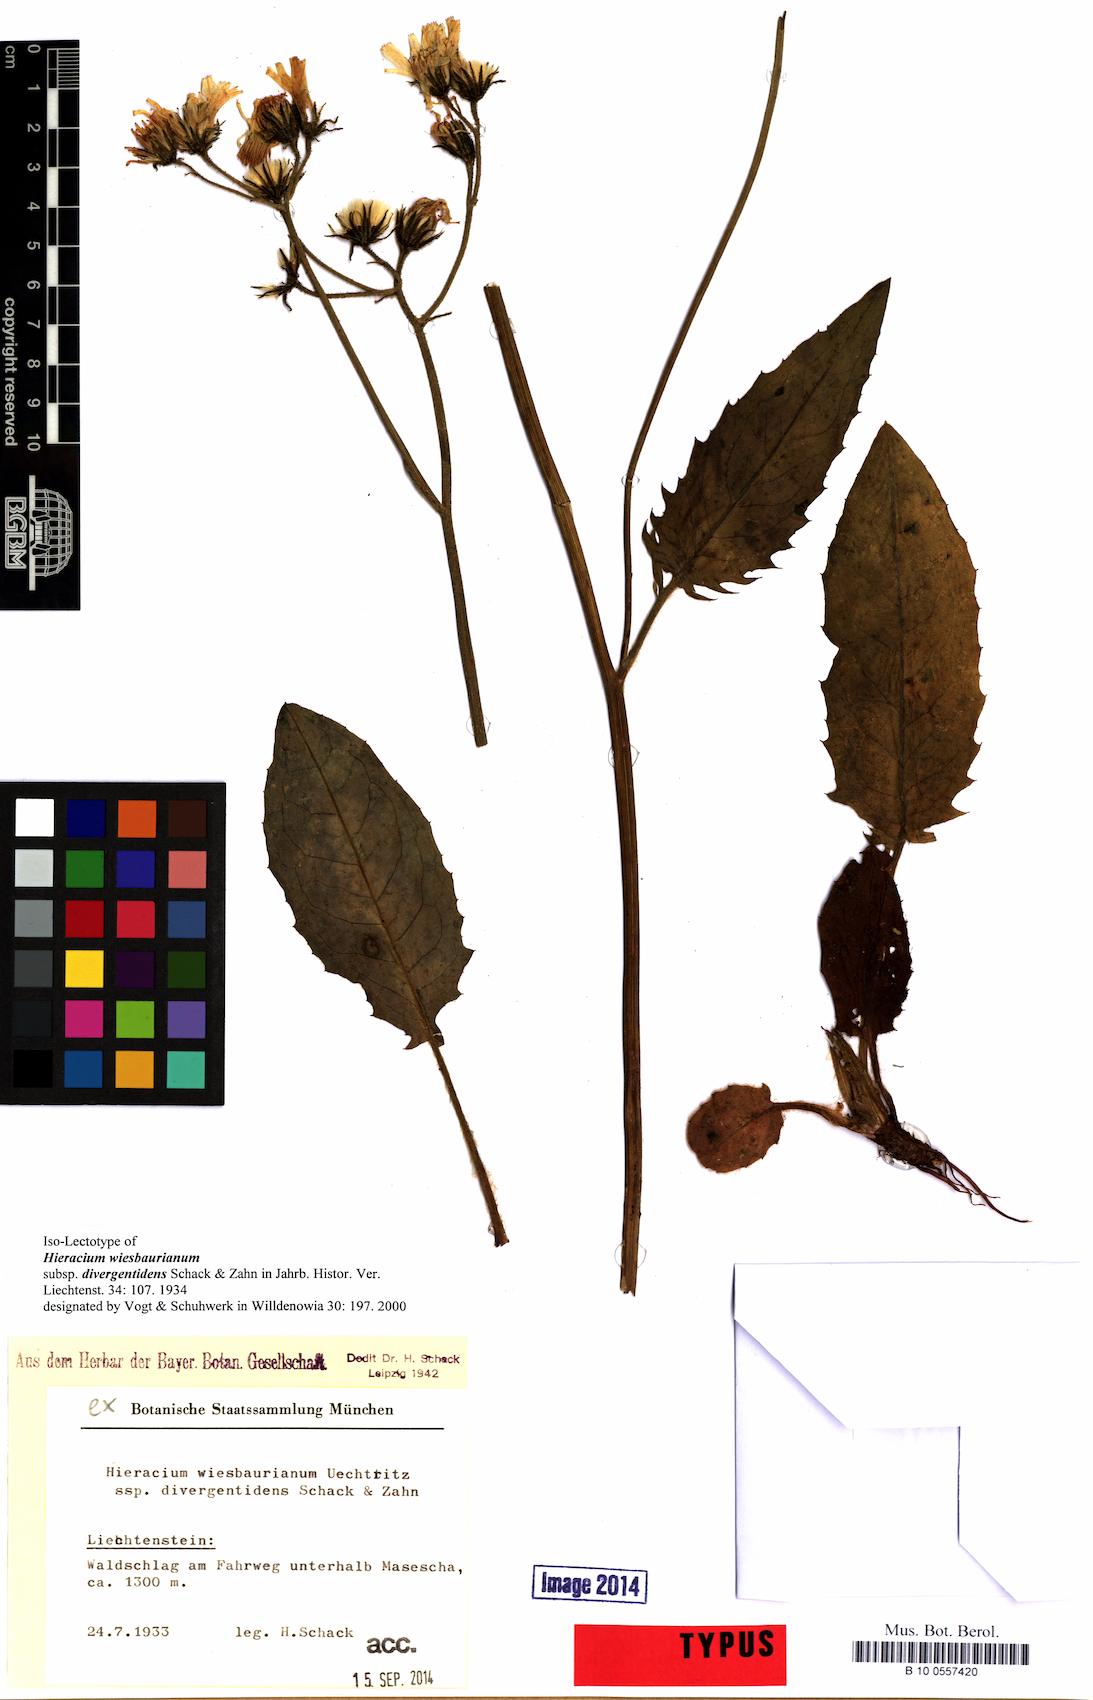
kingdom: Plantae
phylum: Tracheophyta
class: Magnoliopsida
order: Asterales
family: Asteraceae
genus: Hieracium
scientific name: Hieracium hypochoeroides
